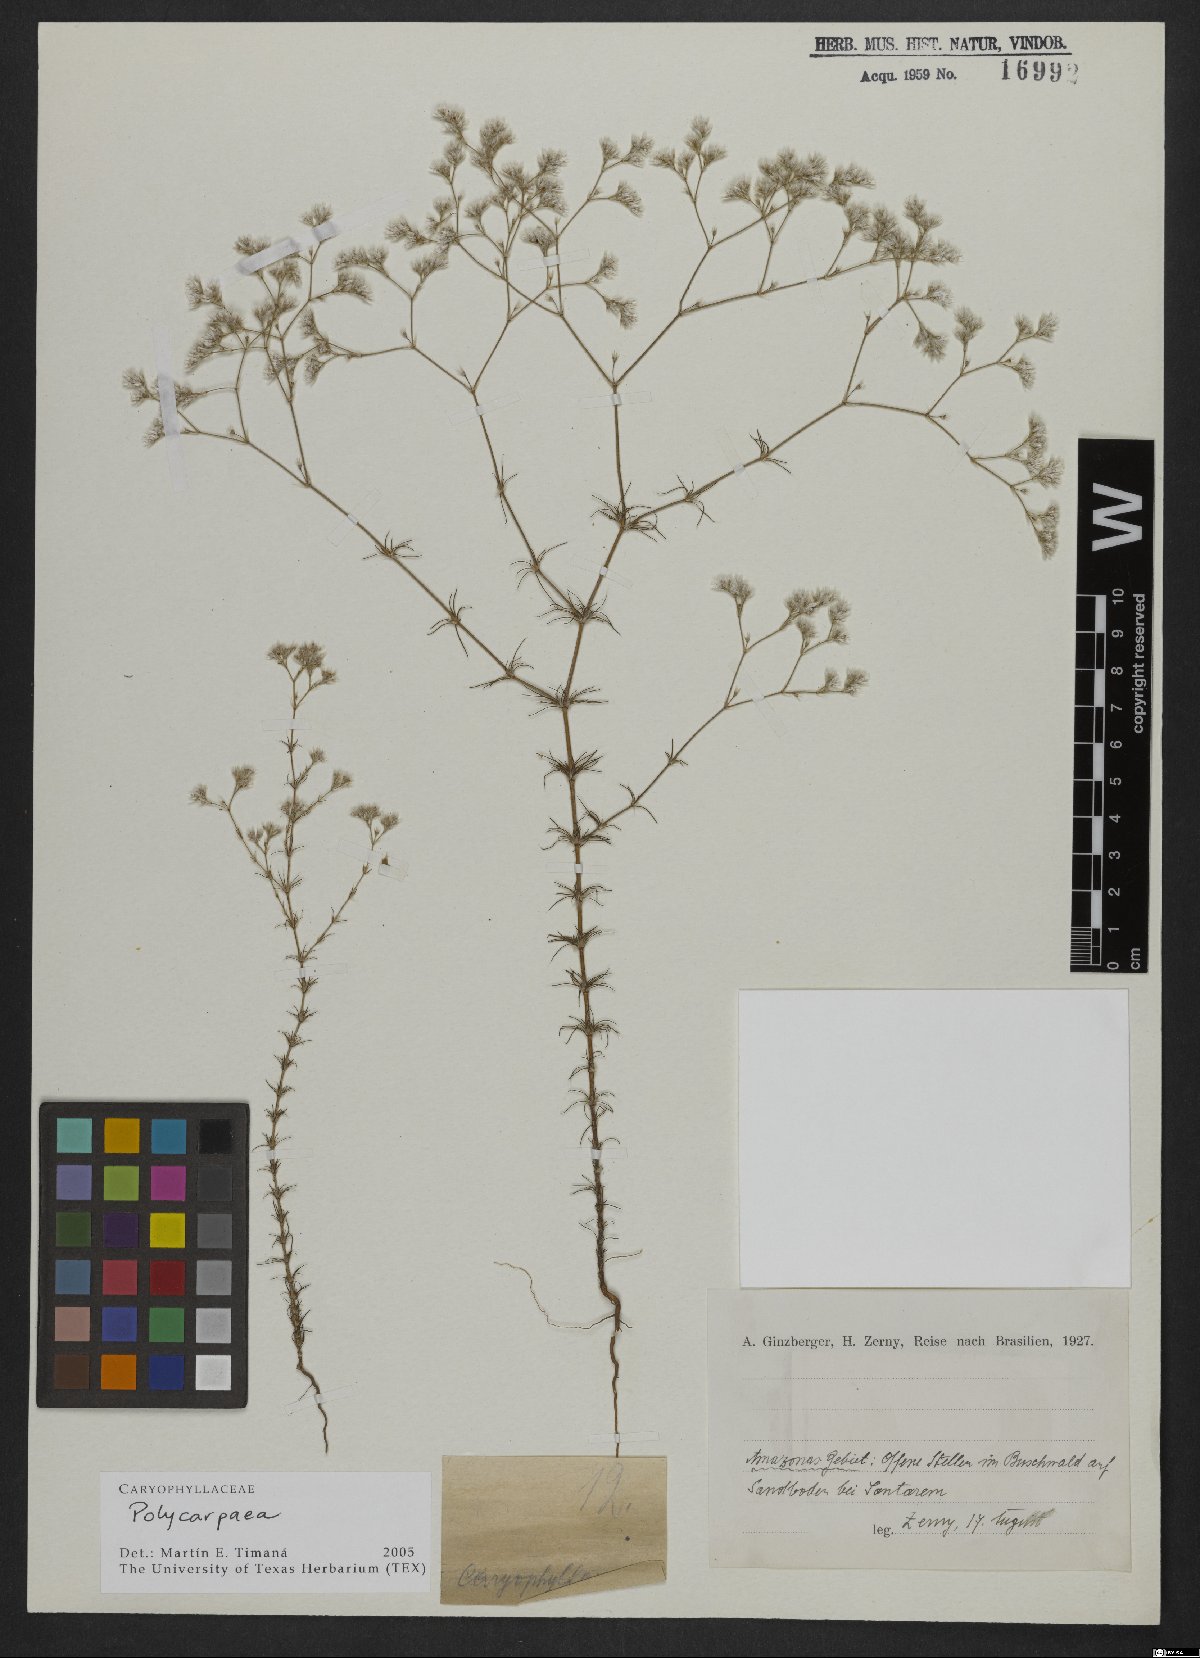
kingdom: Plantae
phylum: Tracheophyta
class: Magnoliopsida
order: Caryophyllales
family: Caryophyllaceae
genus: Polycarpaea
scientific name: Polycarpaea
